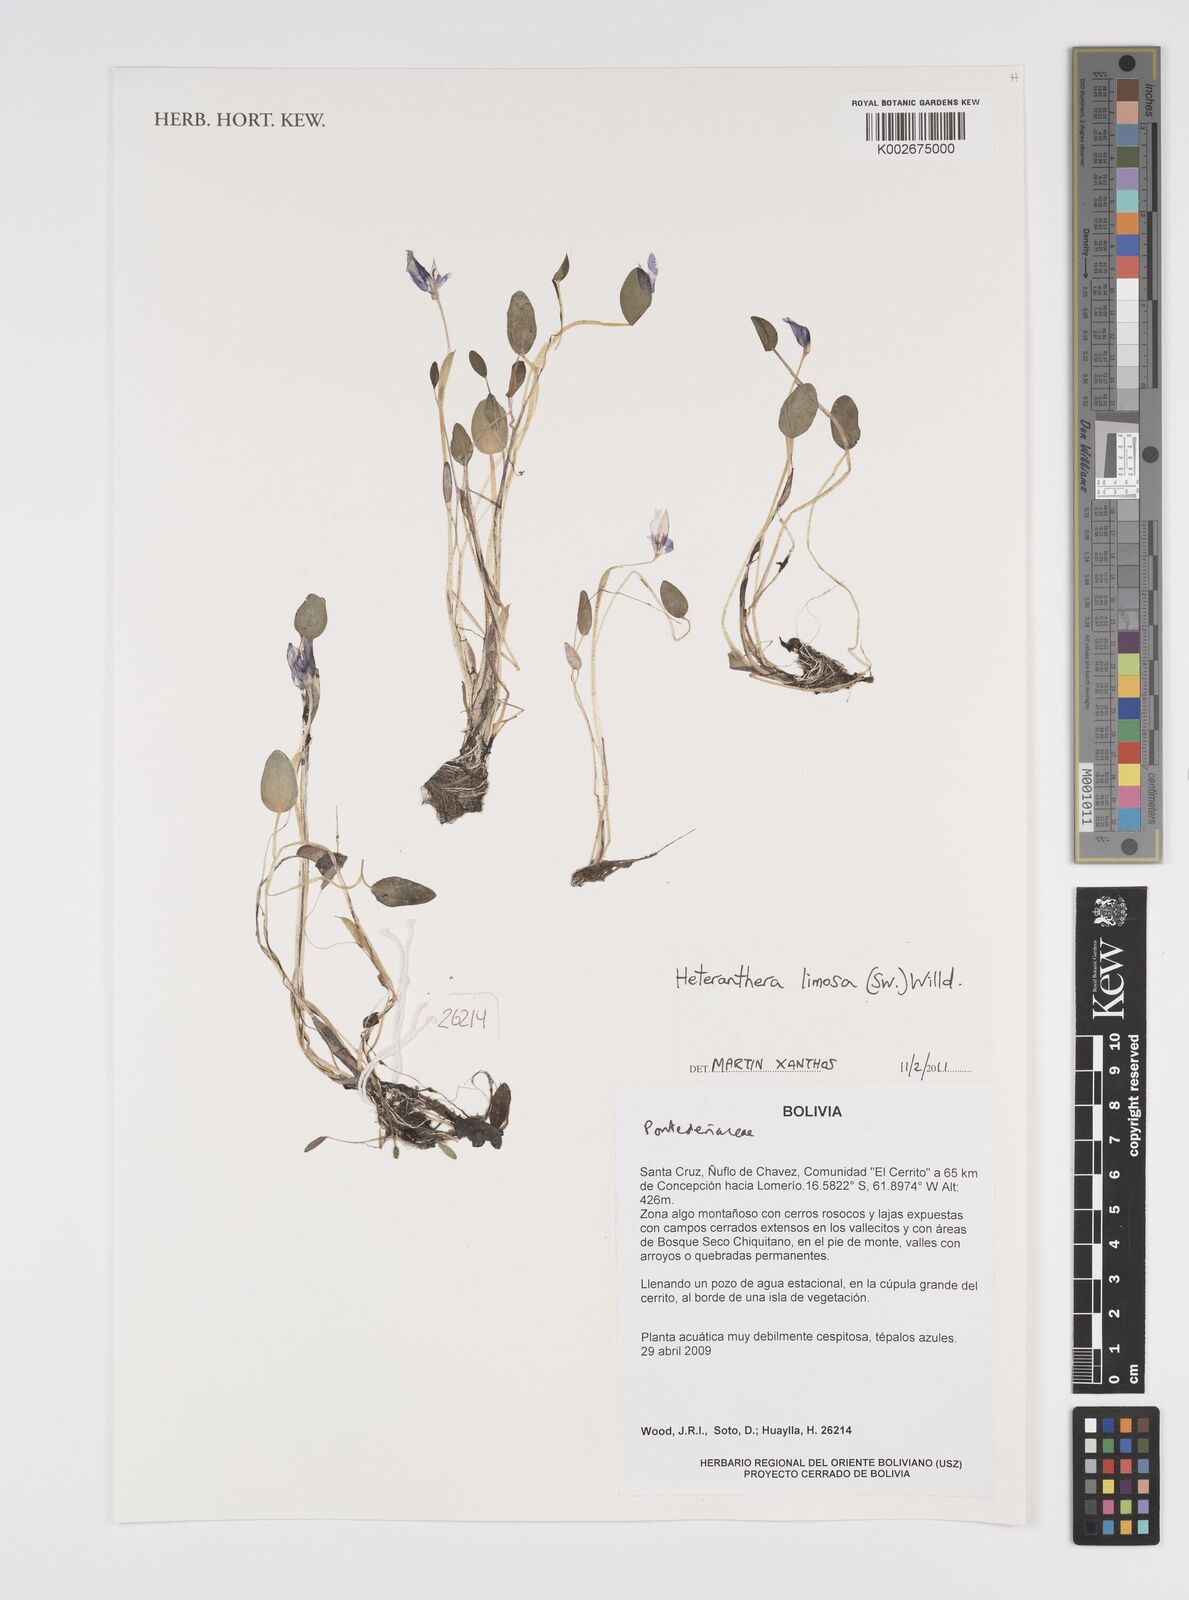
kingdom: Plantae
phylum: Tracheophyta
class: Liliopsida
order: Commelinales
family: Pontederiaceae
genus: Heteranthera
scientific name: Heteranthera limosa
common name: Blue mud-plantain
